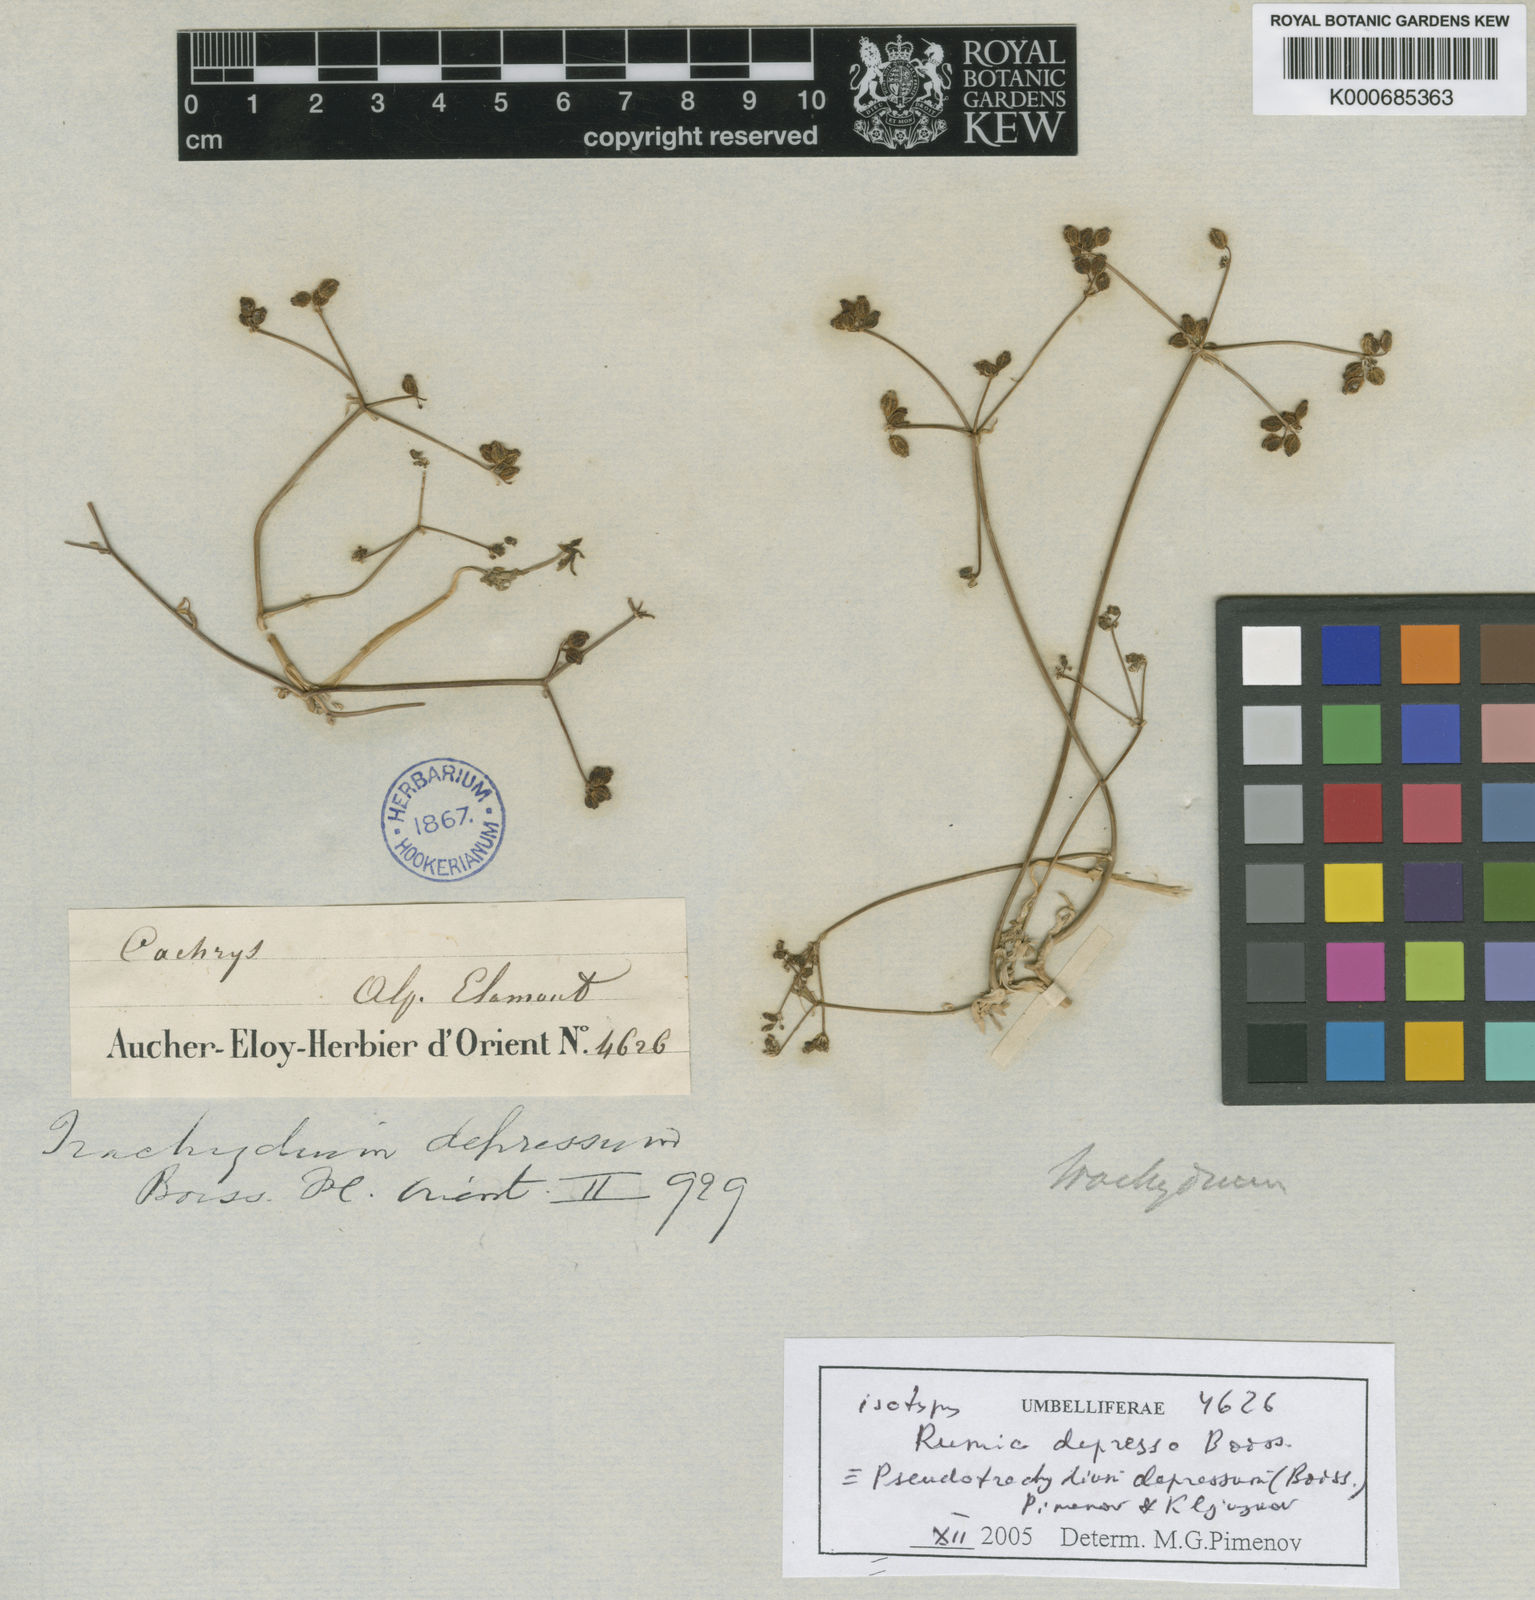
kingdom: Plantae
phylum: Tracheophyta
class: Magnoliopsida
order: Apiales
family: Apiaceae
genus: Pseudotrachydium
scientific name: Pseudotrachydium depressum
